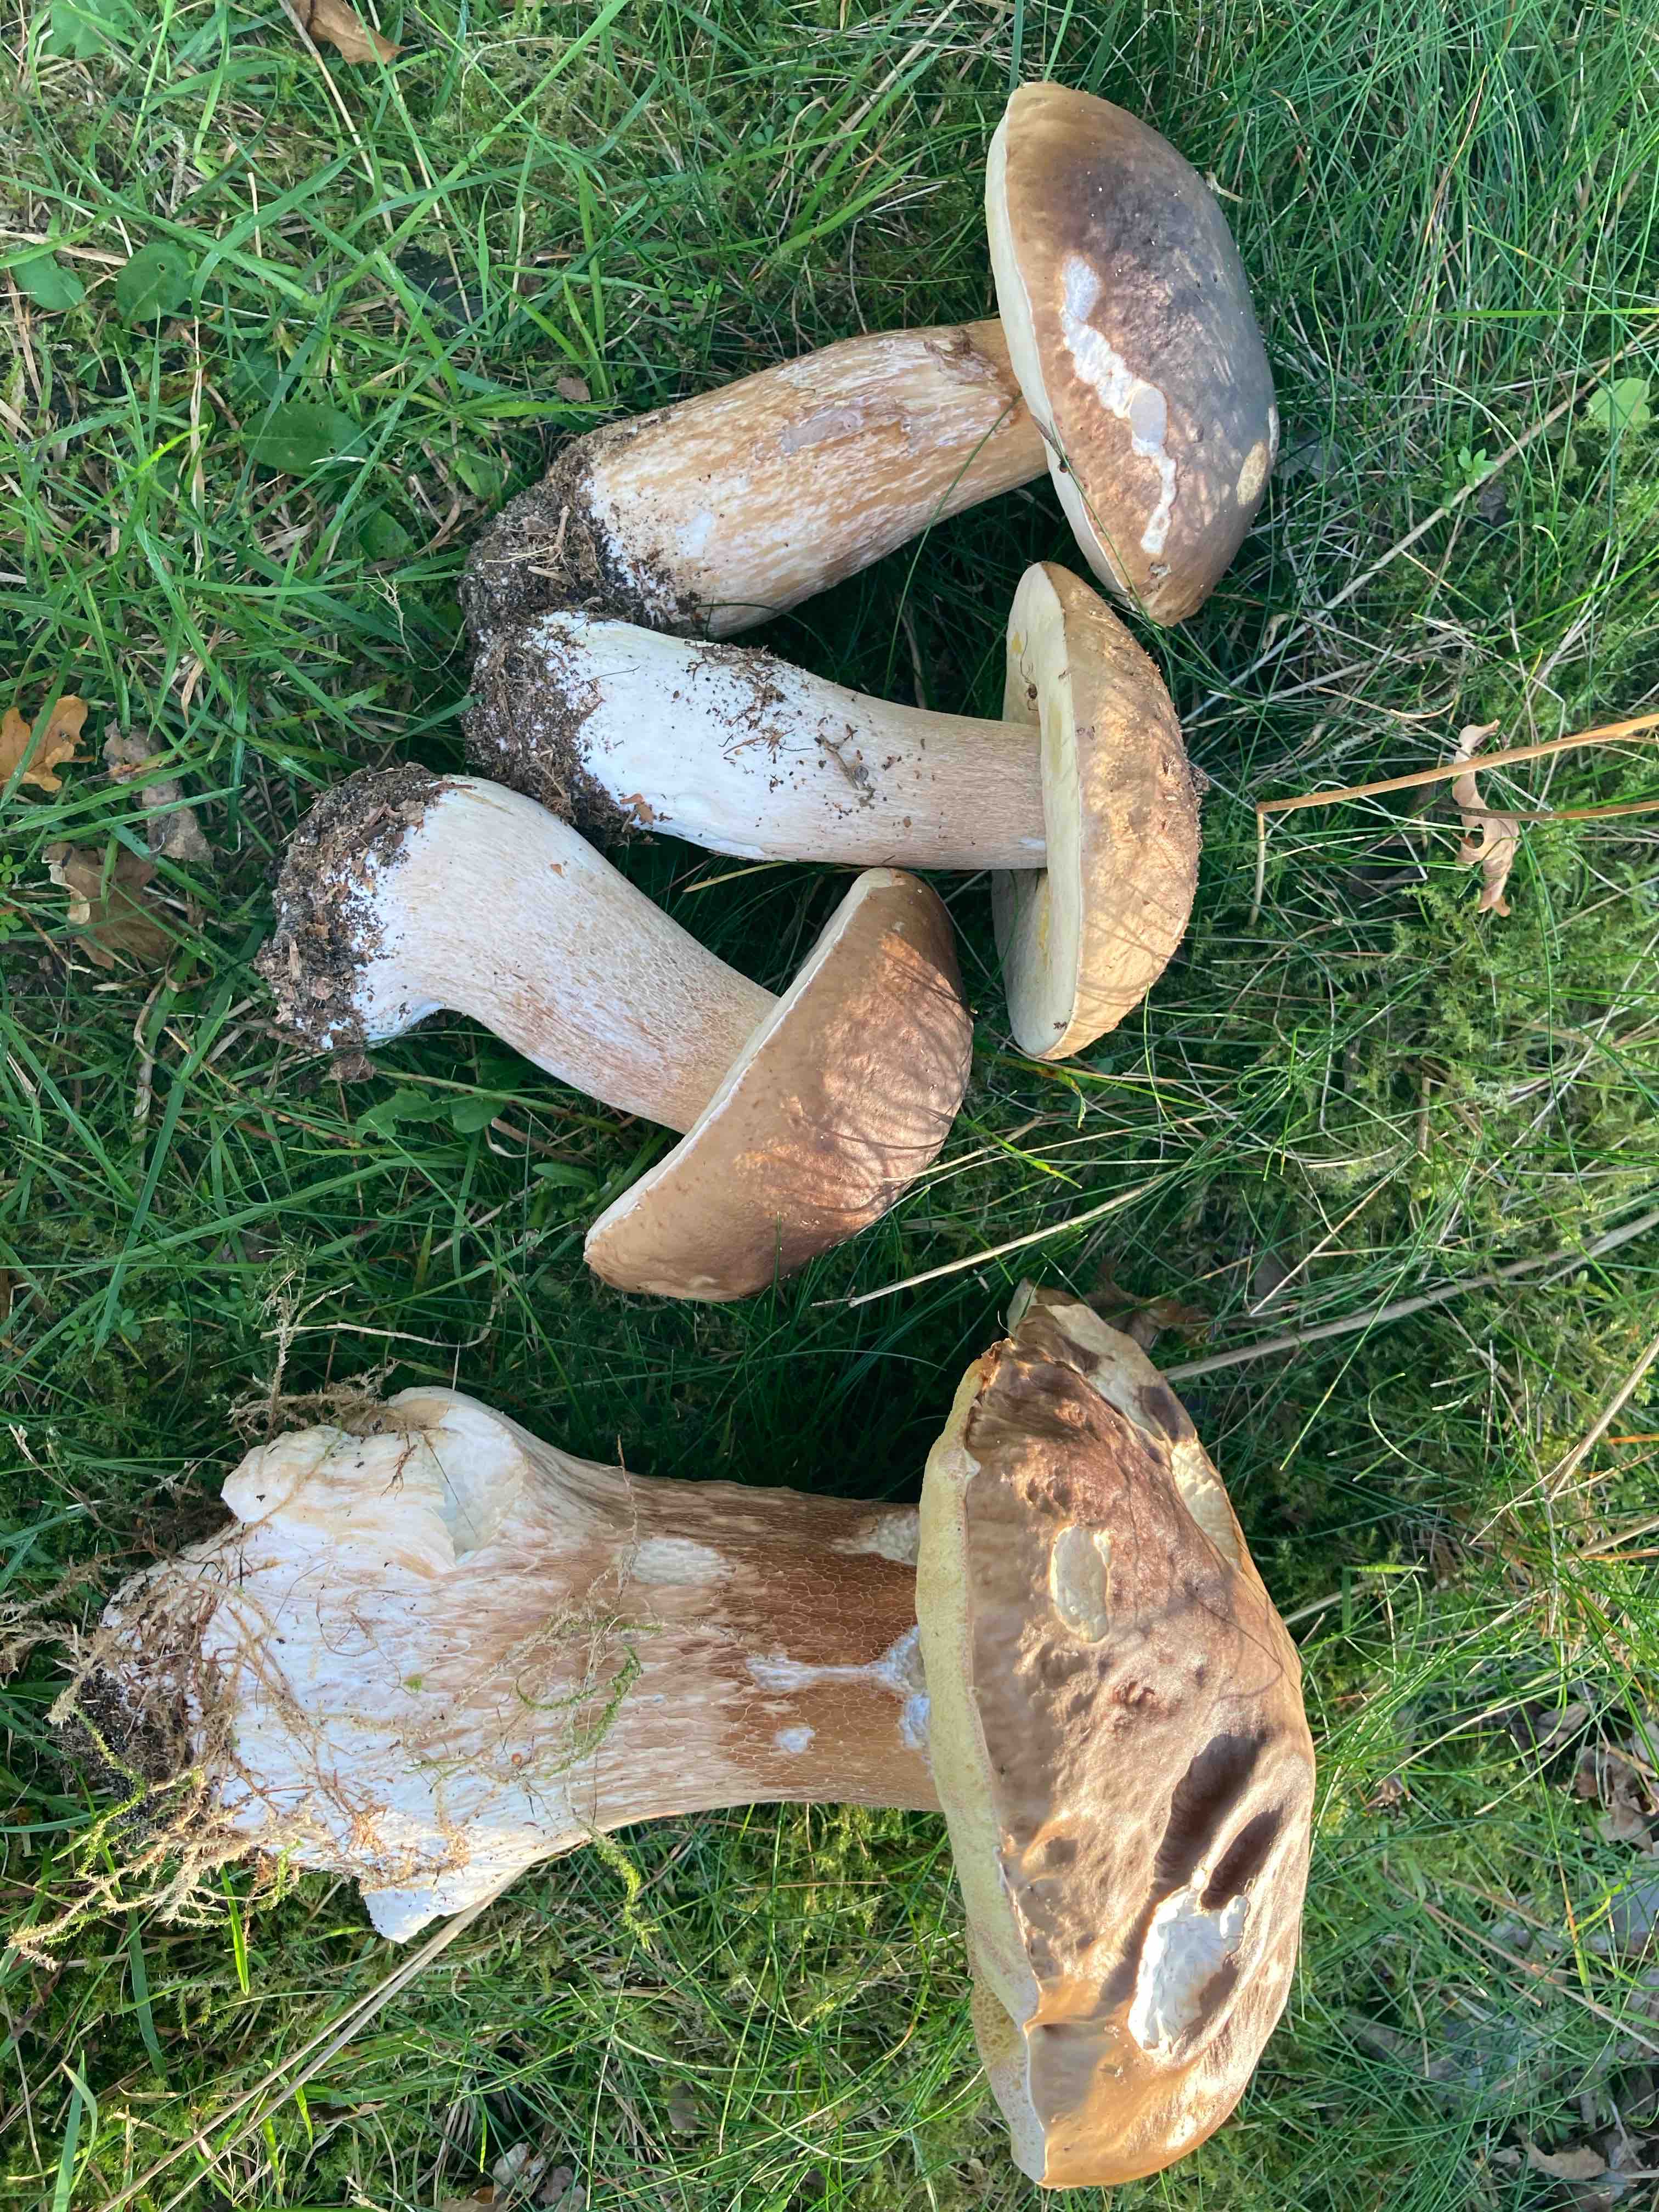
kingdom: Fungi
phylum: Basidiomycota
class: Agaricomycetes
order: Boletales
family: Boletaceae
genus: Boletus
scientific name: Boletus edulis
